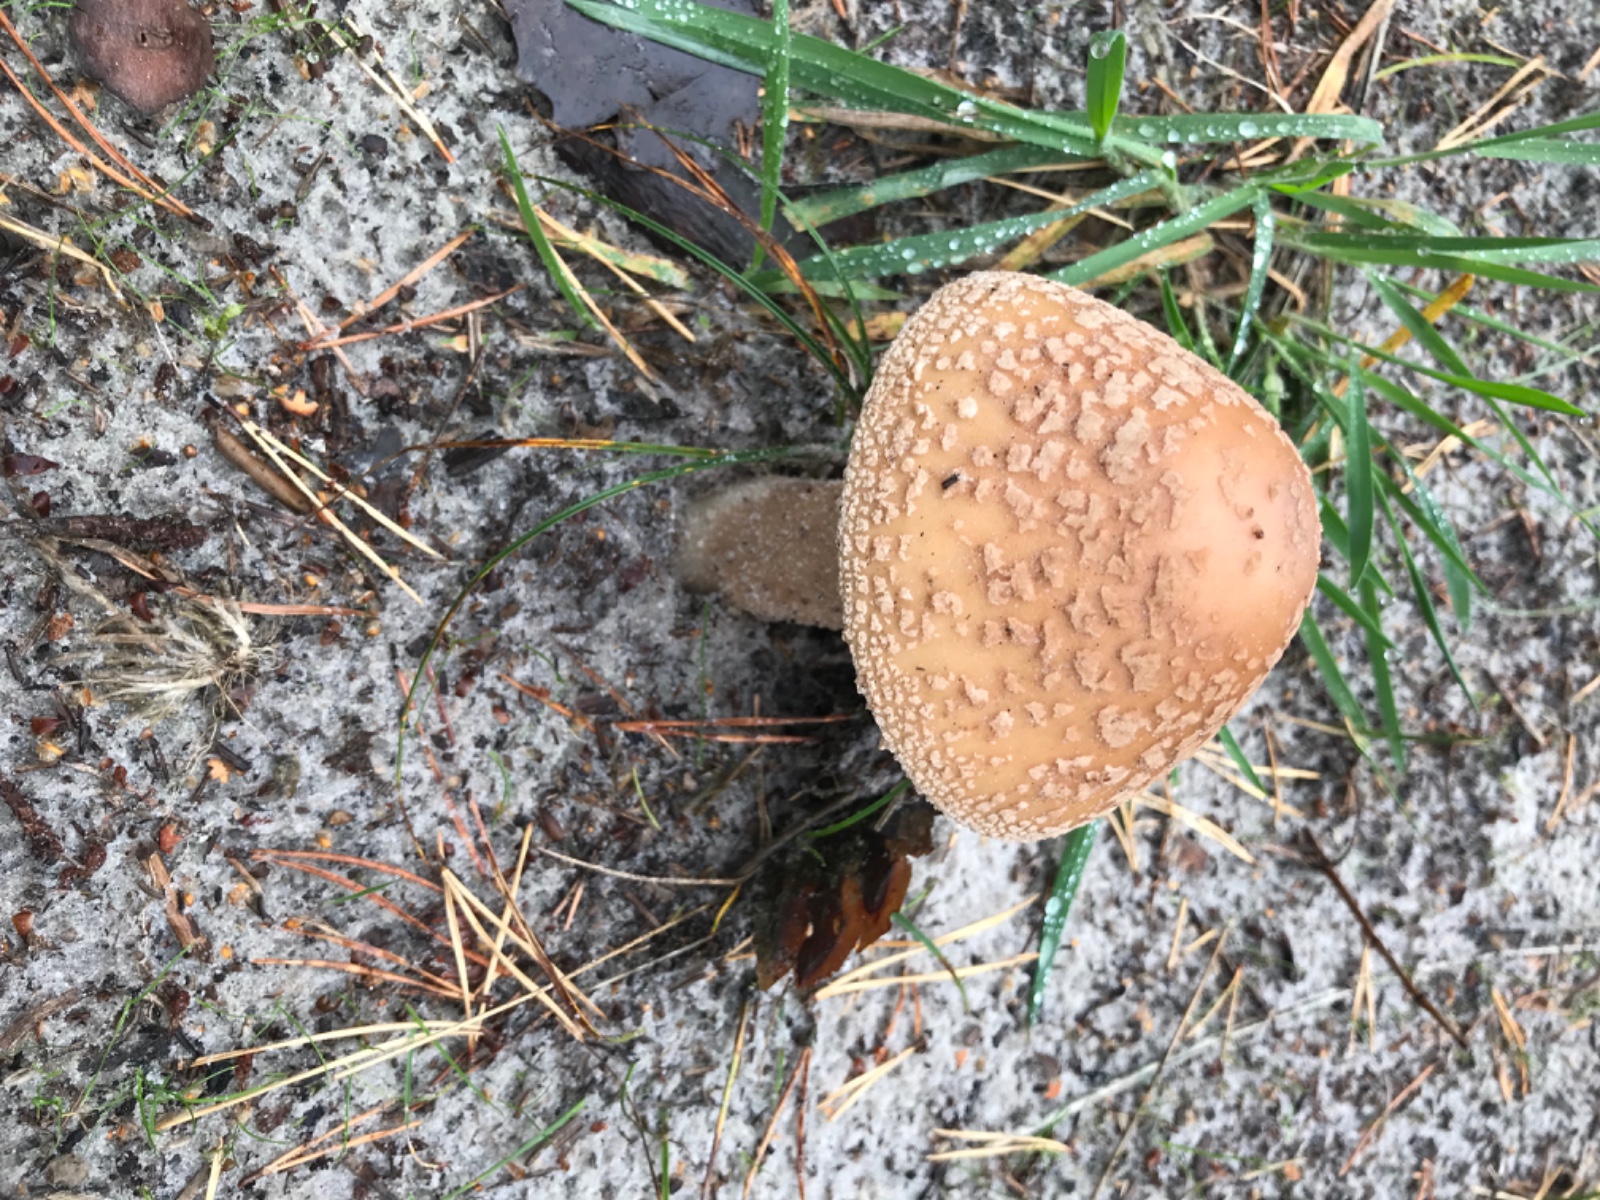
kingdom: Fungi
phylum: Basidiomycota
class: Agaricomycetes
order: Agaricales
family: Amanitaceae
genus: Amanita
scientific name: Amanita rubescens
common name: rødmende fluesvamp
